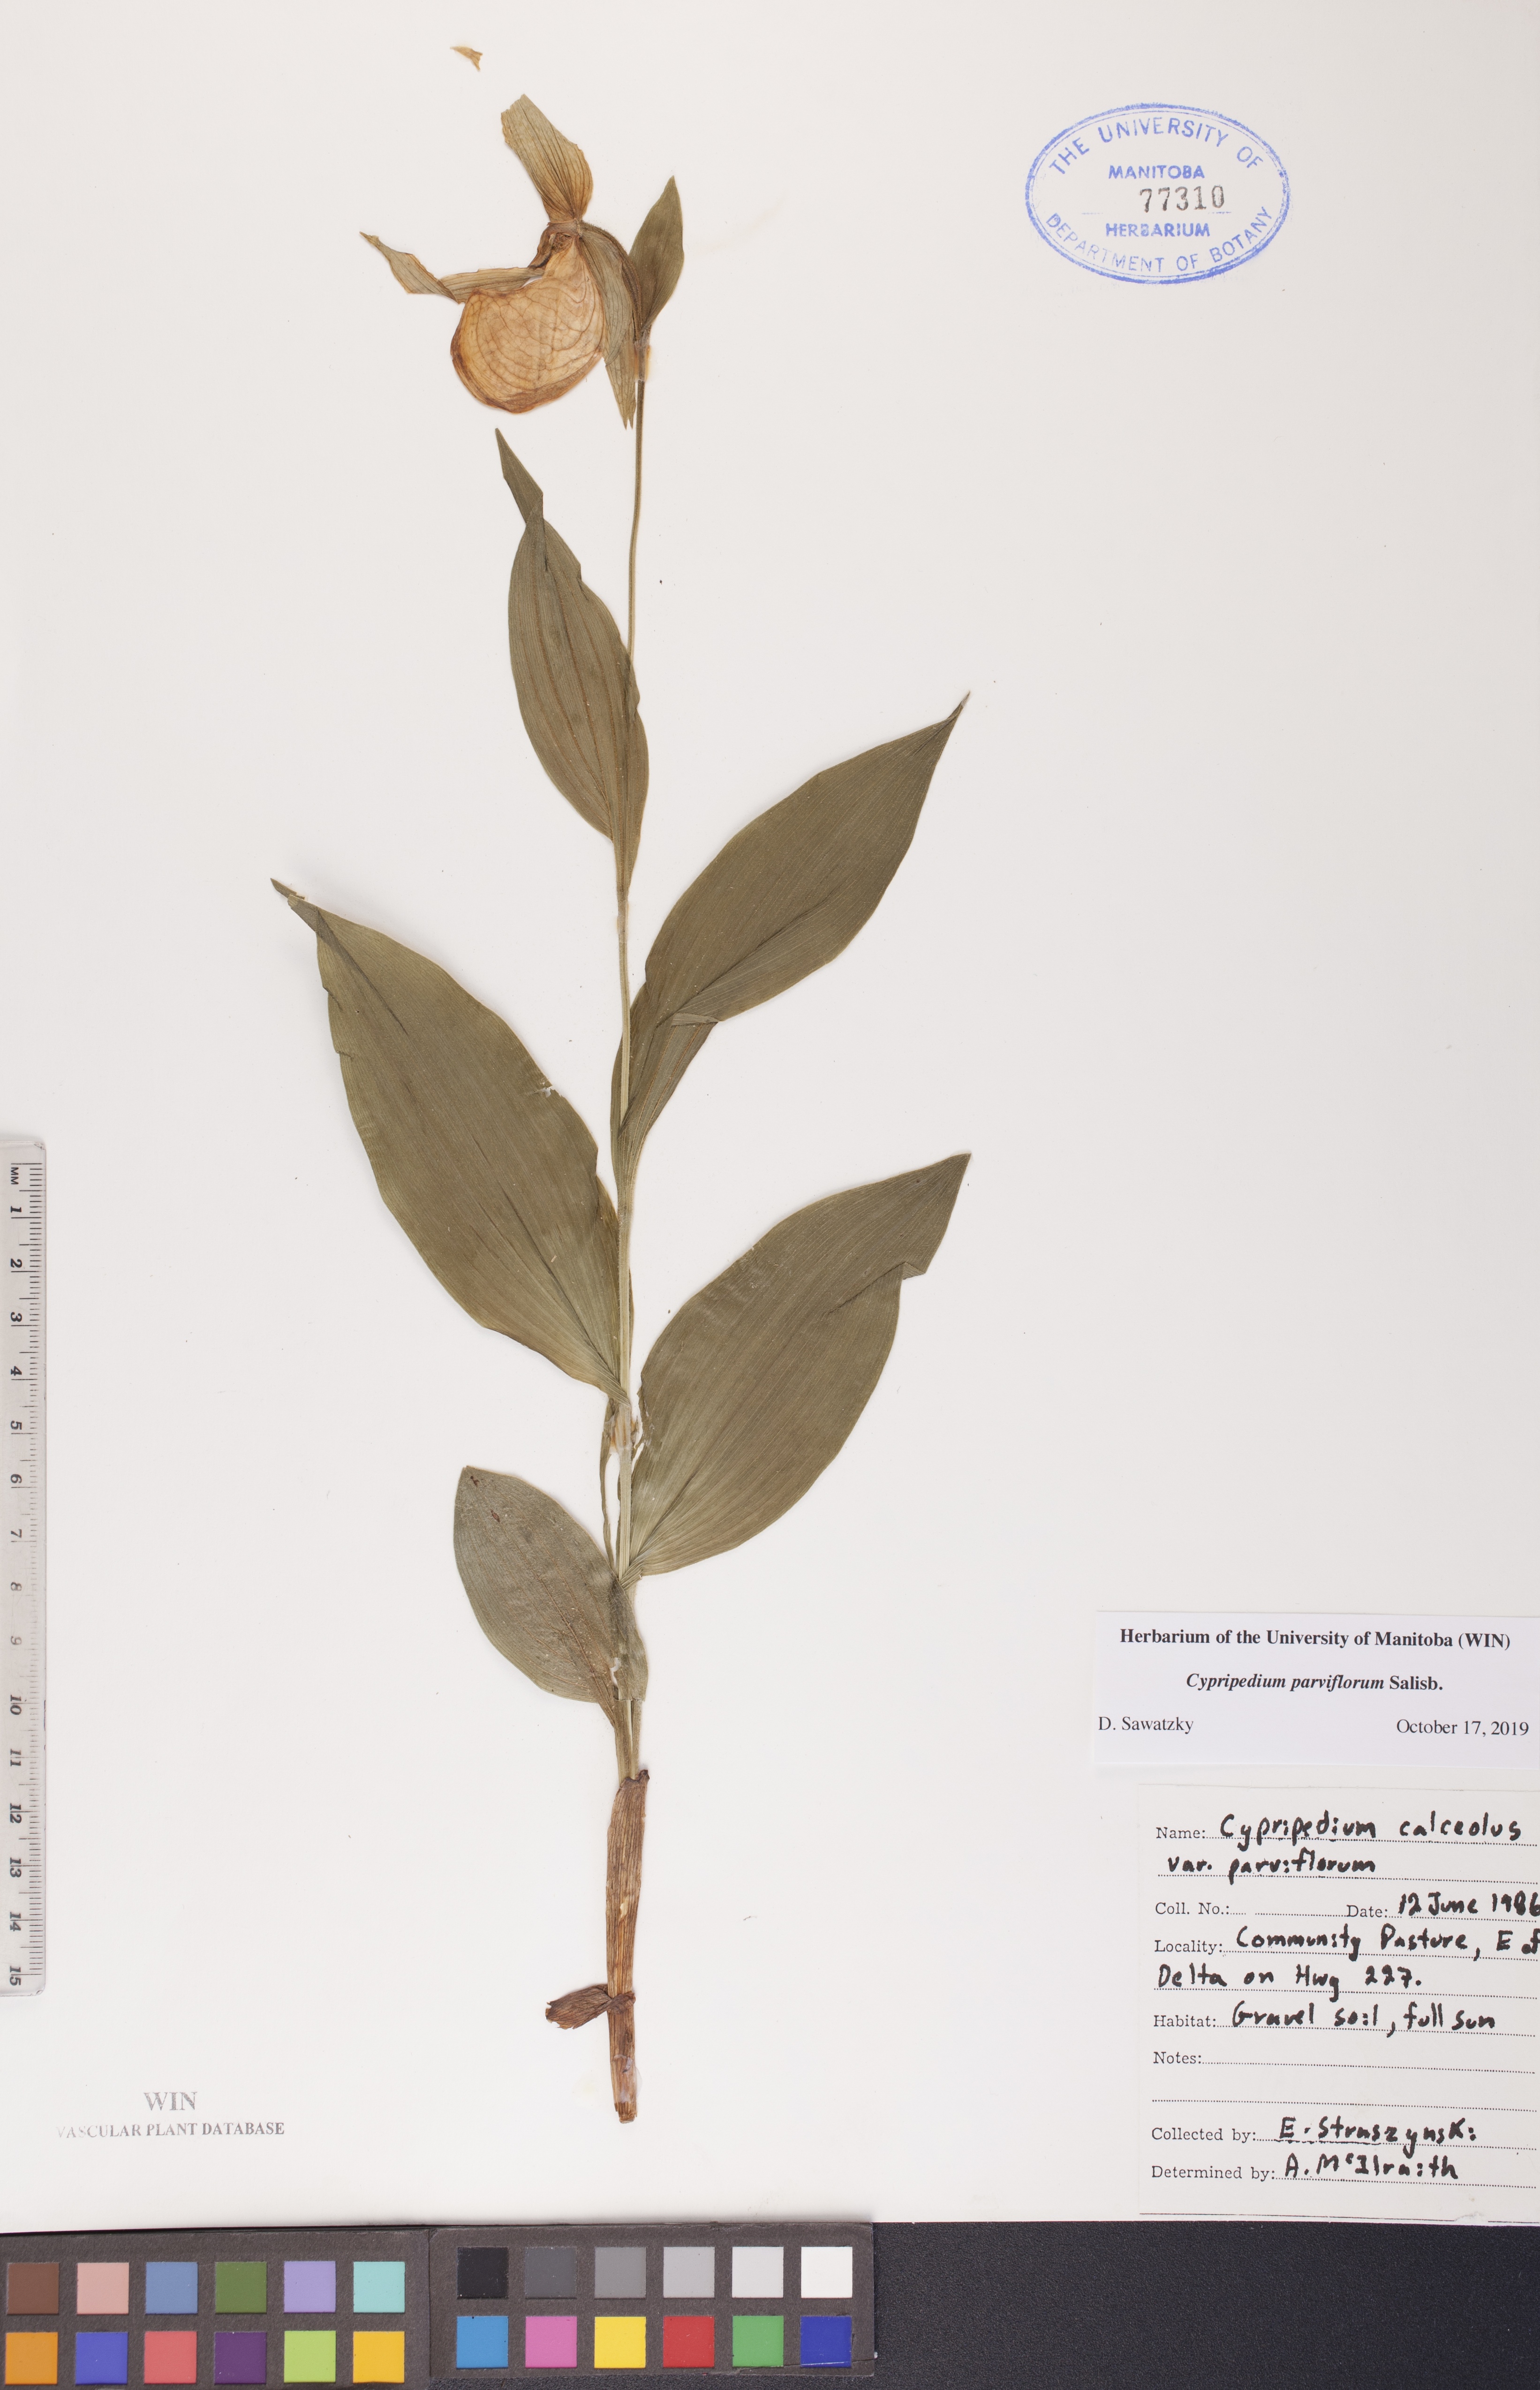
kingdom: Plantae
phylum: Tracheophyta
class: Liliopsida
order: Asparagales
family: Orchidaceae
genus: Cypripedium
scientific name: Cypripedium parviflorum
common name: American yellow lady's-slipper
